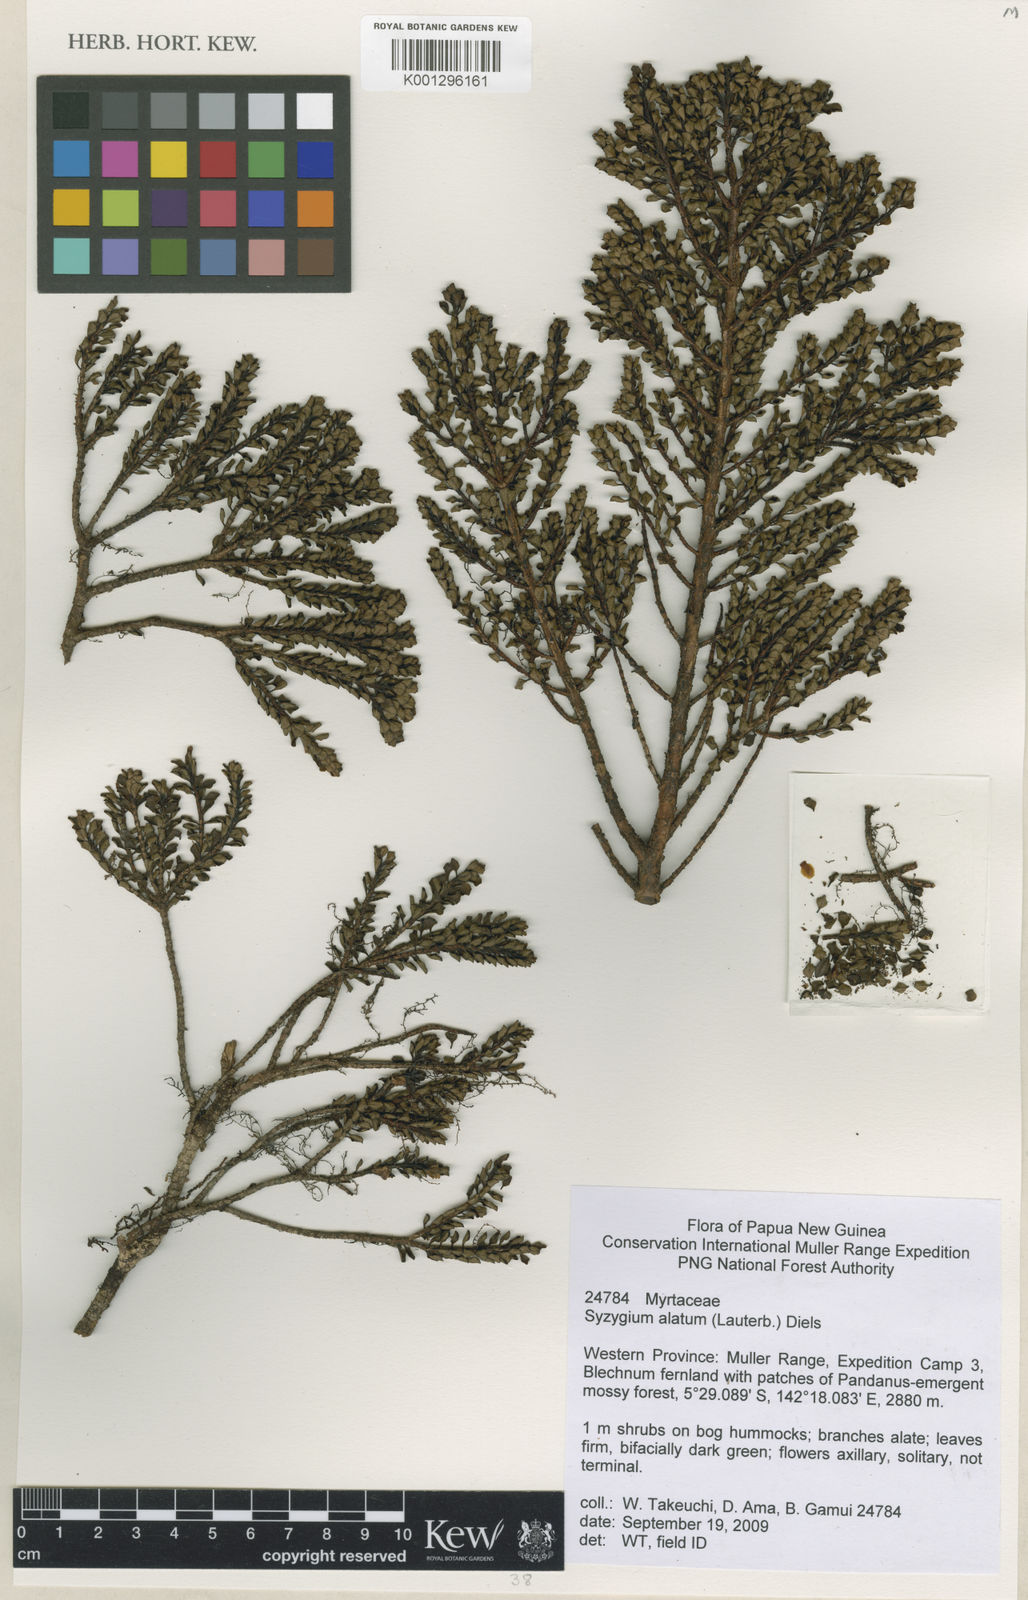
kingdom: Plantae
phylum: Tracheophyta
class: Magnoliopsida
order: Myrtales
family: Myrtaceae
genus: Syzygium
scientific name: Syzygium alatum
